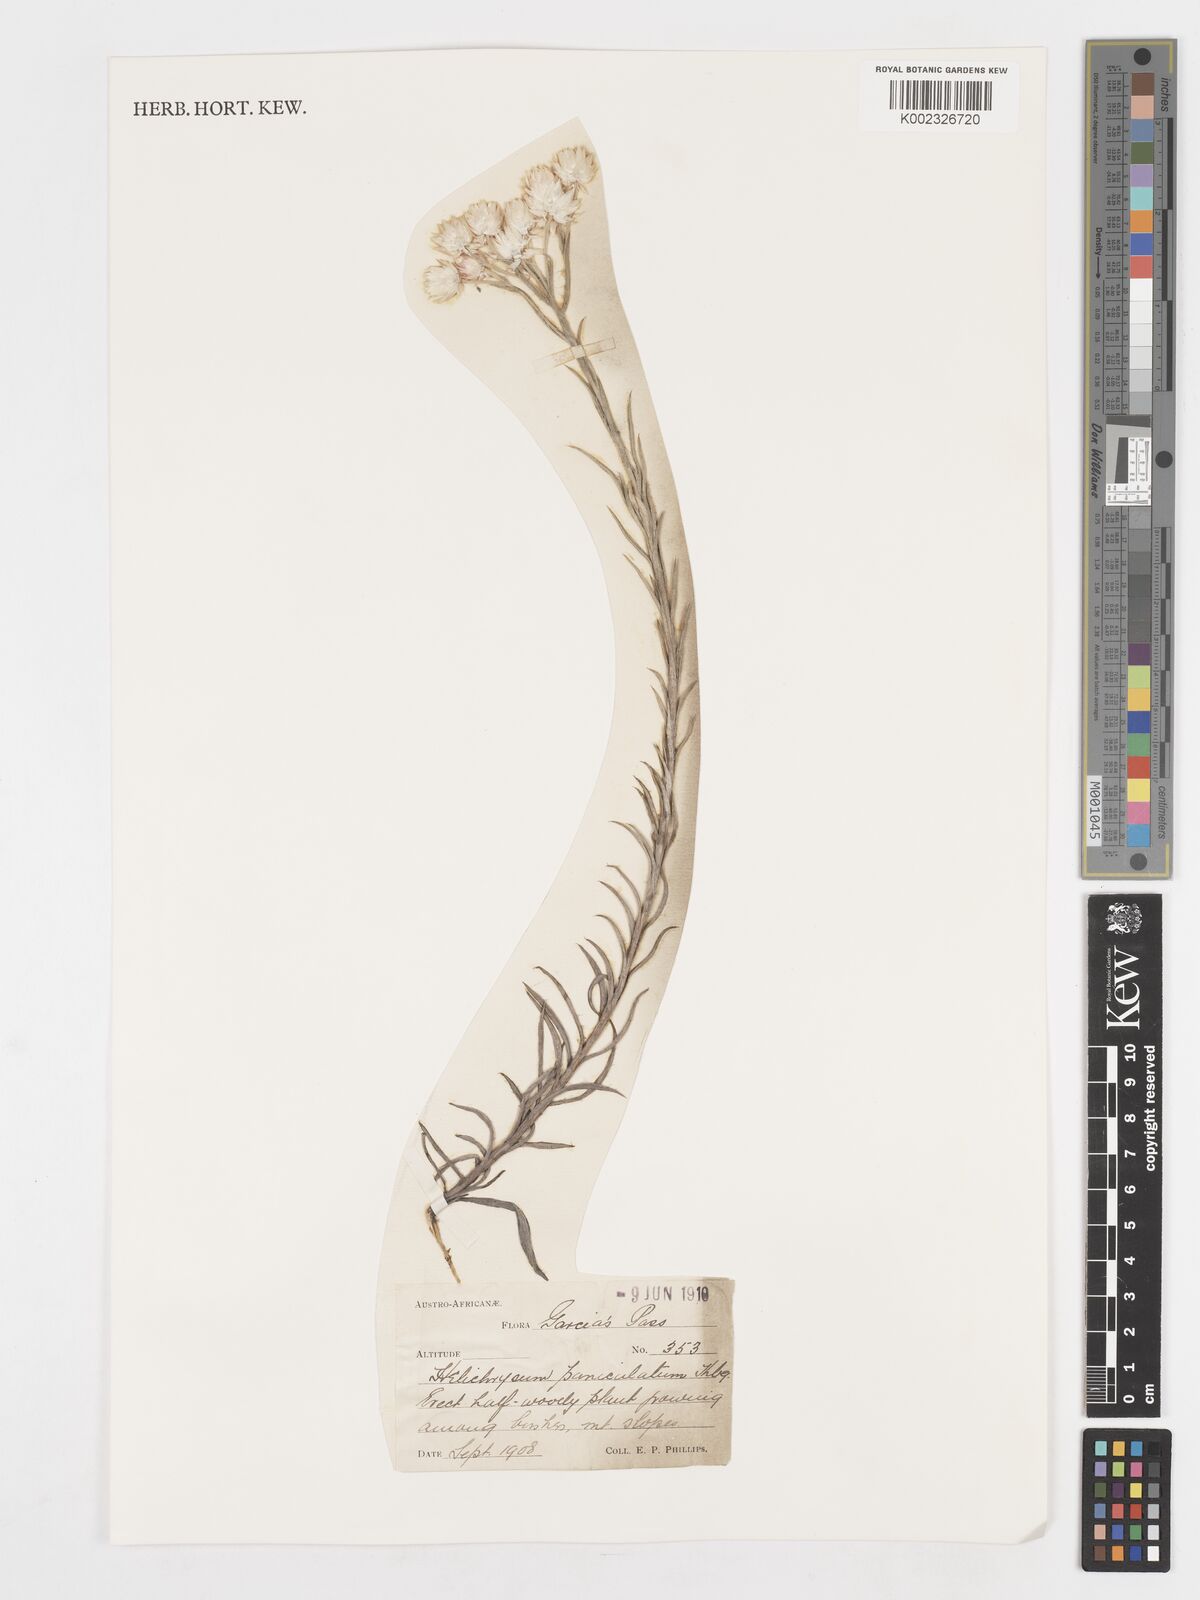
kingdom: Plantae
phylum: Tracheophyta
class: Magnoliopsida
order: Asterales
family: Asteraceae
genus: Achyranthemum
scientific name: Achyranthemum paniculatum
